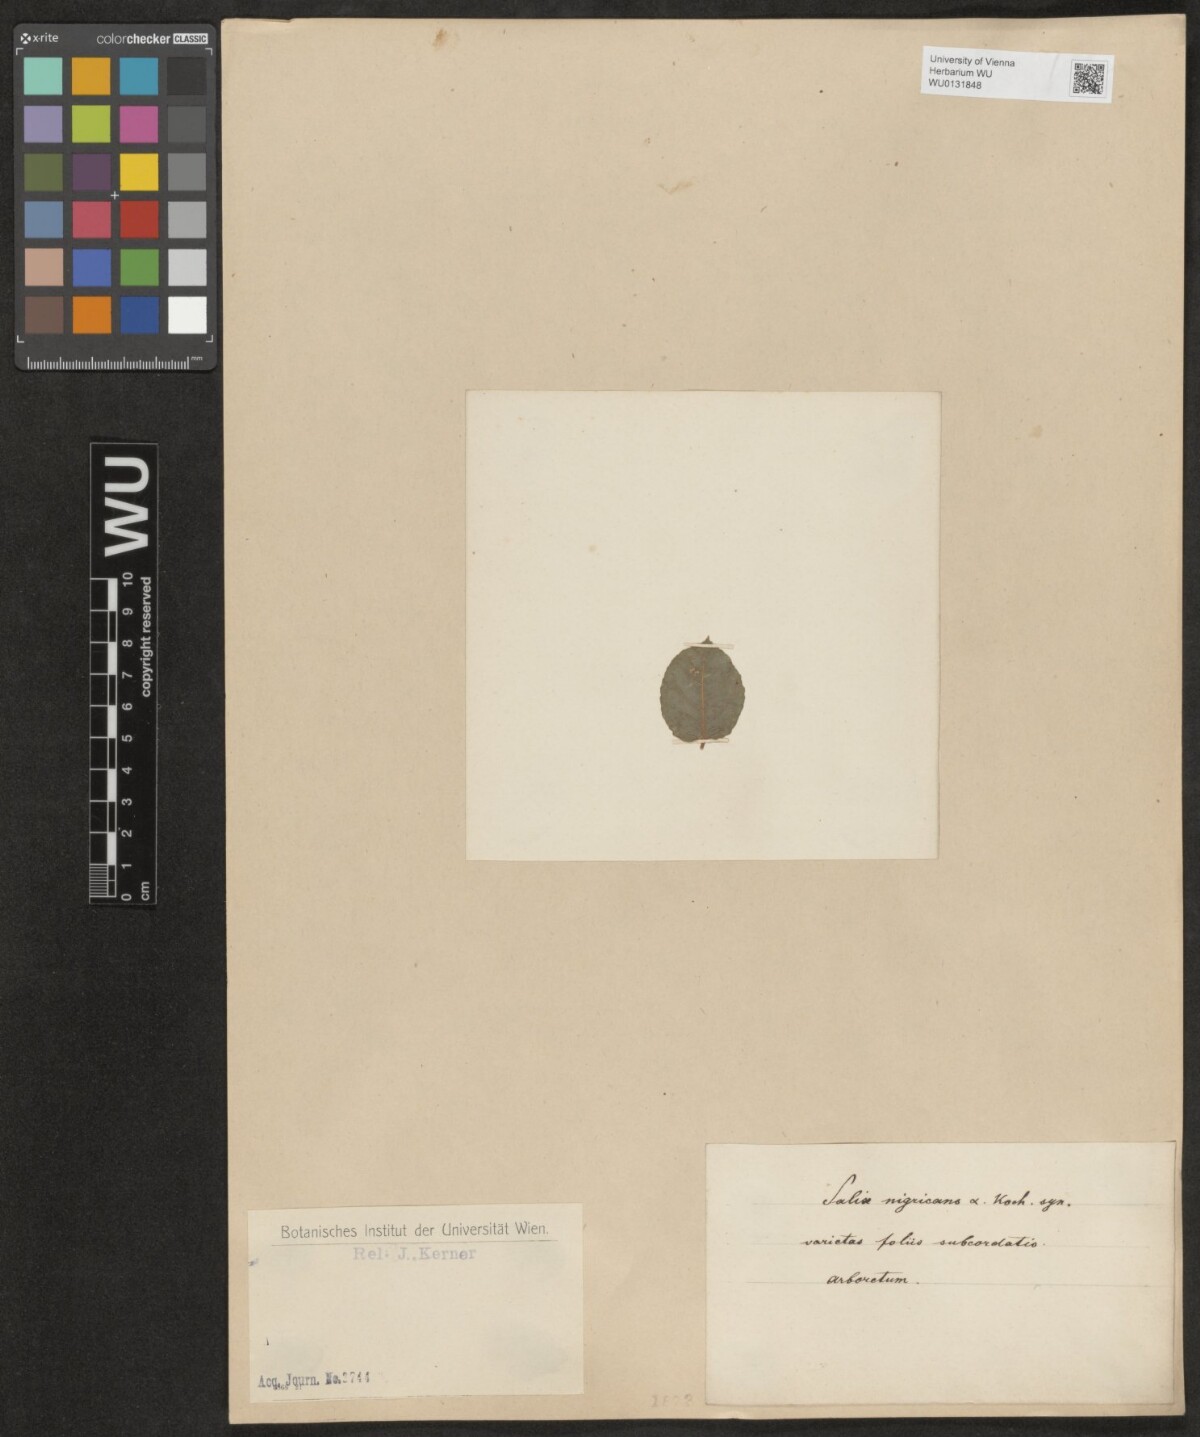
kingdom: Plantae
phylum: Tracheophyta
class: Magnoliopsida
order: Malpighiales
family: Salicaceae
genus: Salix
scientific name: Salix myrsinifolia
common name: Dark-leaved willow
